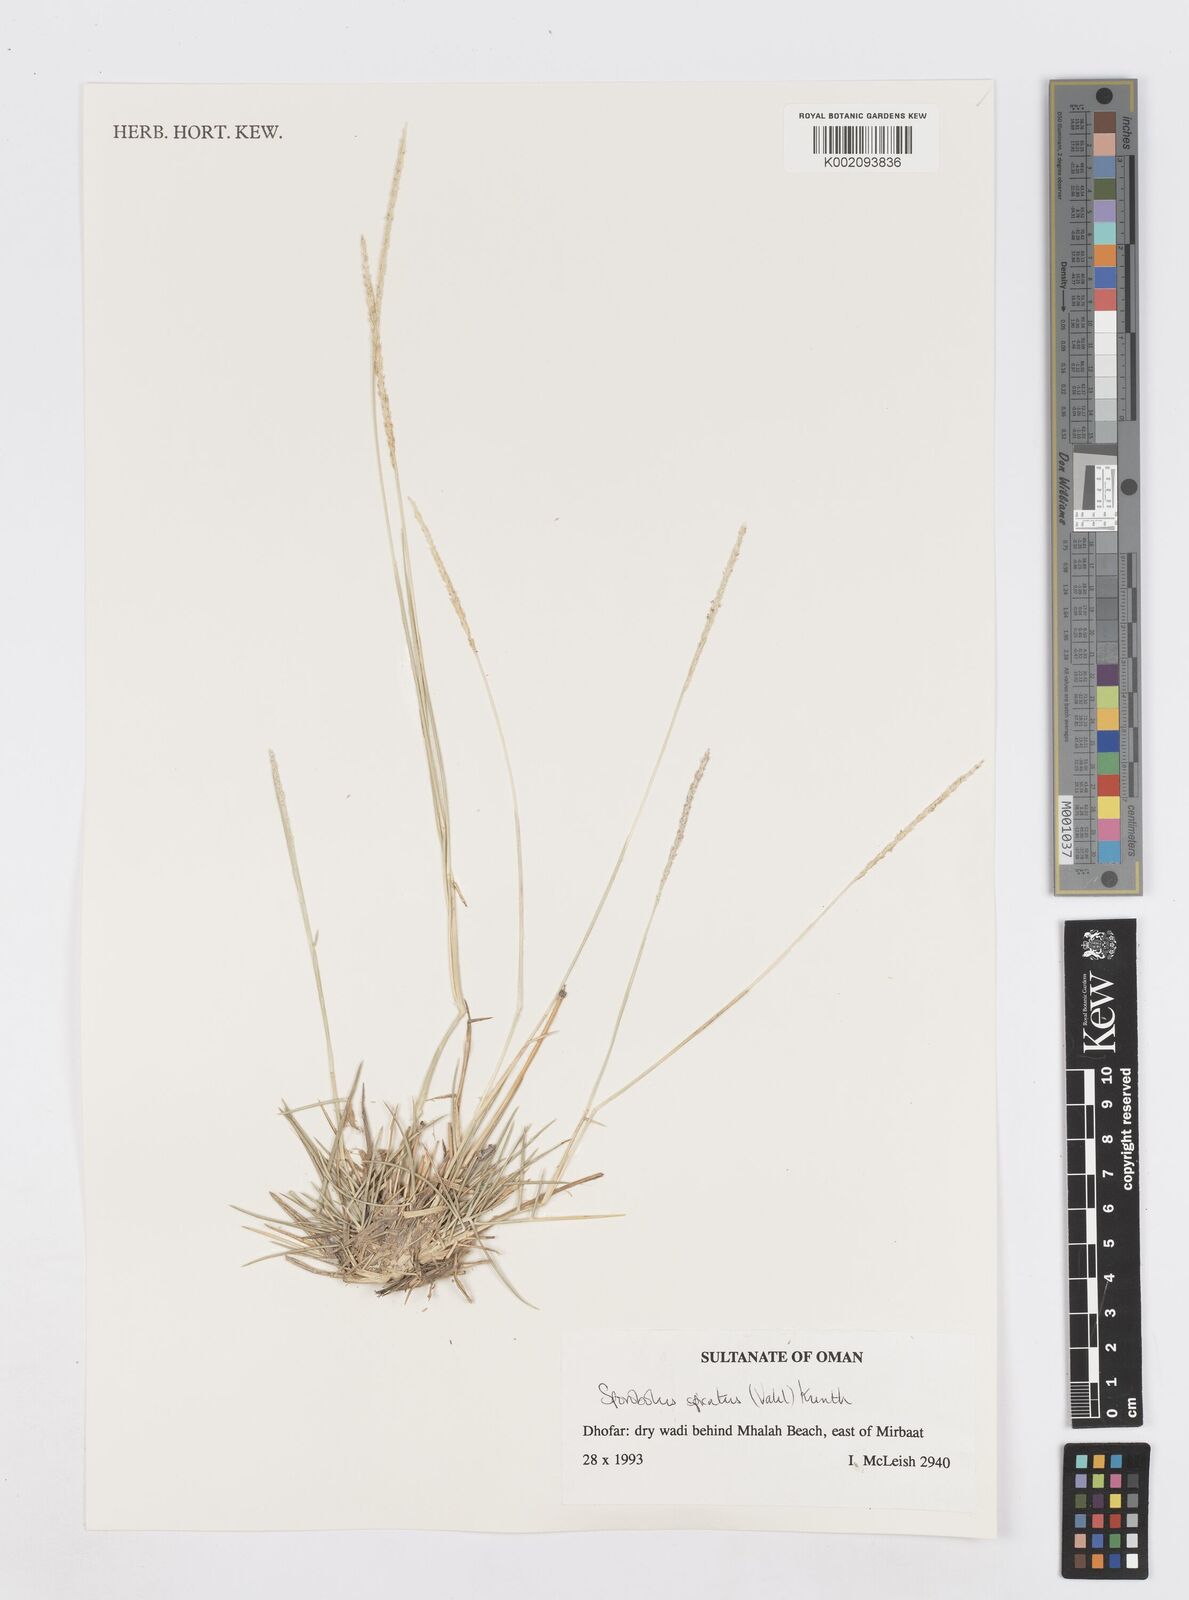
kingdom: Plantae
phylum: Tracheophyta
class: Liliopsida
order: Poales
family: Poaceae
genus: Sporobolus
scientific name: Sporobolus spicatus
